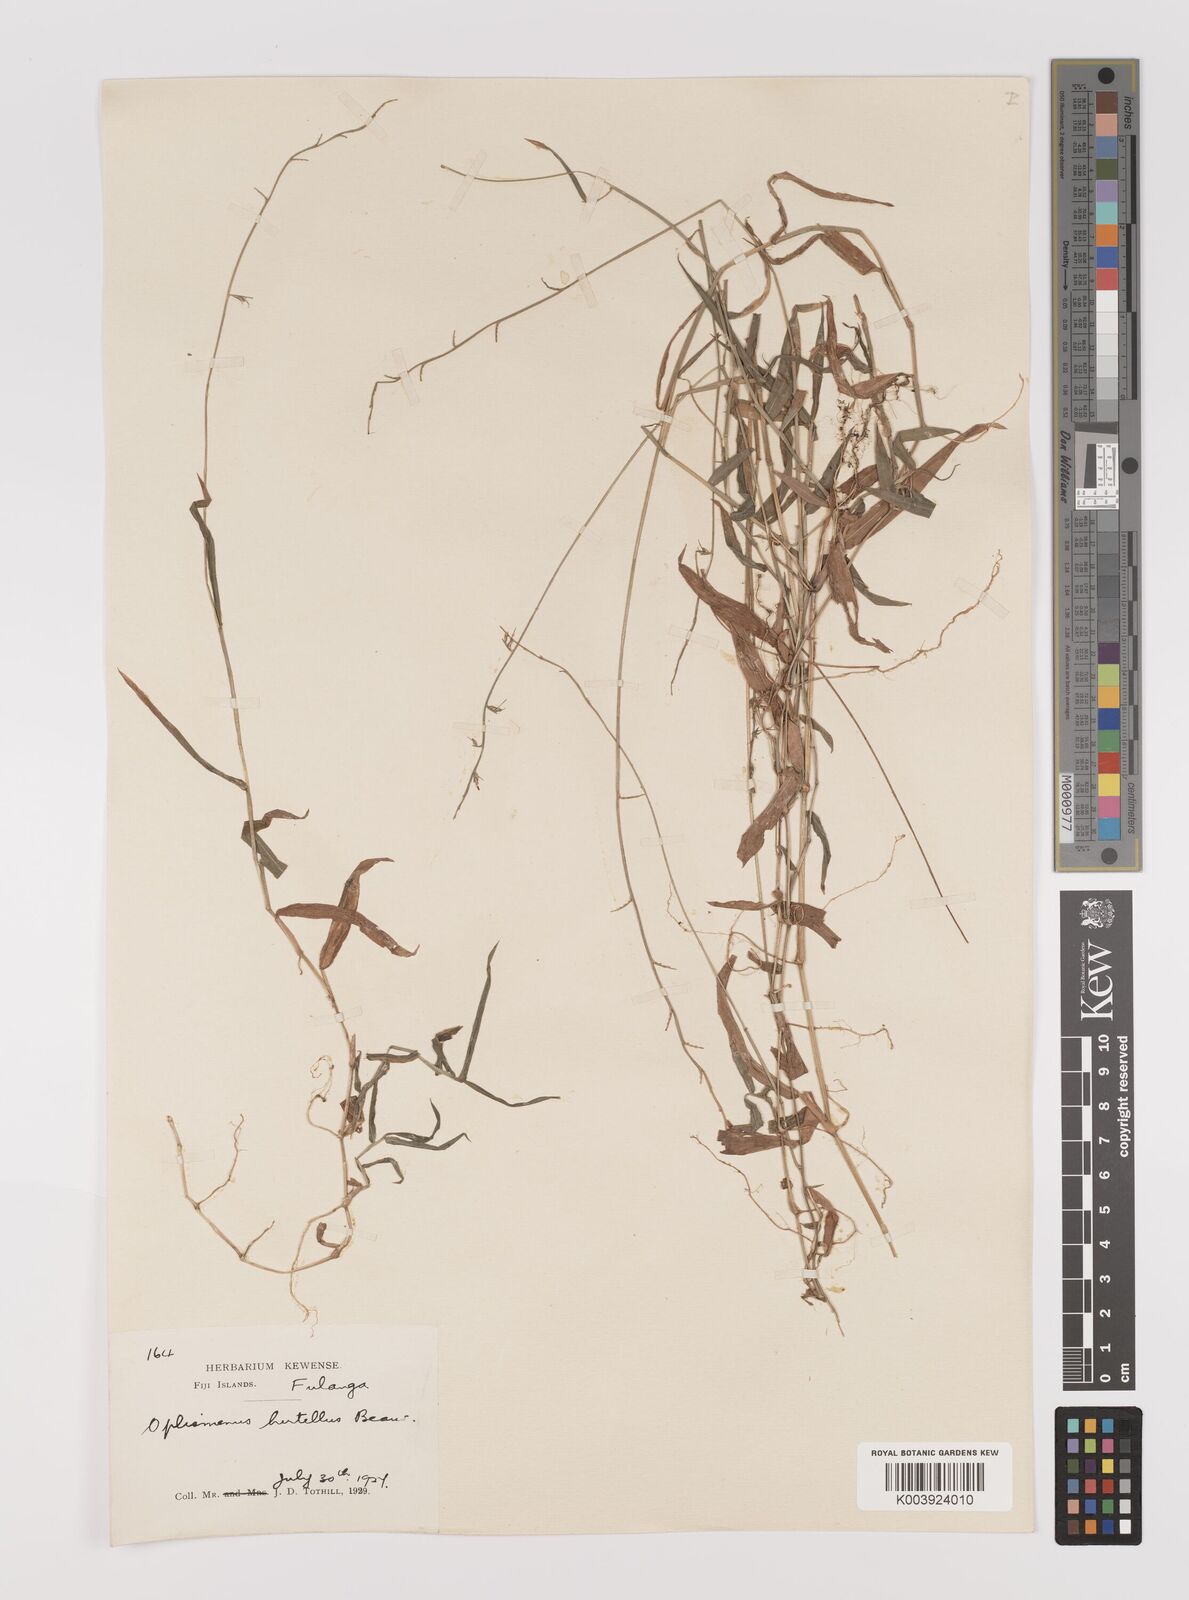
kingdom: Plantae
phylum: Tracheophyta
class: Liliopsida
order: Poales
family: Poaceae
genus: Oplismenus
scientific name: Oplismenus hirtellus
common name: Basketgrass
